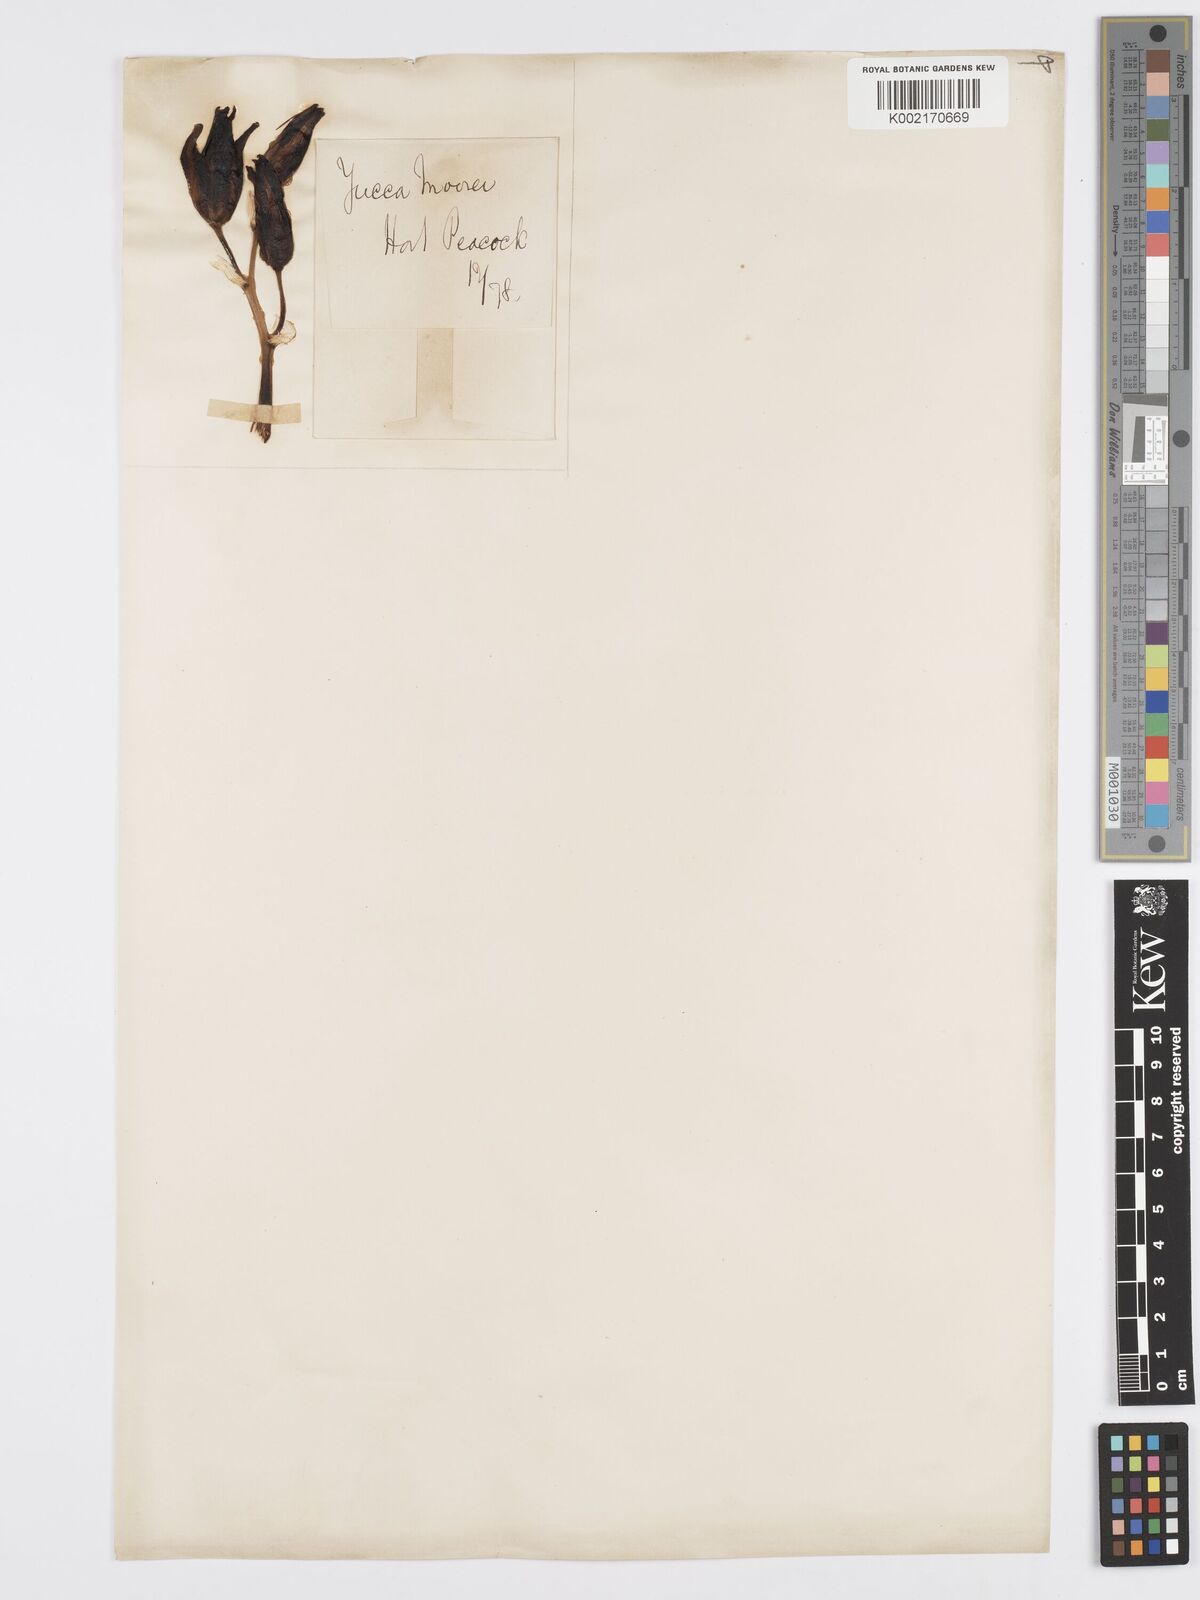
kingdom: Plantae
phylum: Tracheophyta
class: Liliopsida
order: Asparagales
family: Asparagaceae
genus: Yucca
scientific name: Yucca gigantea
